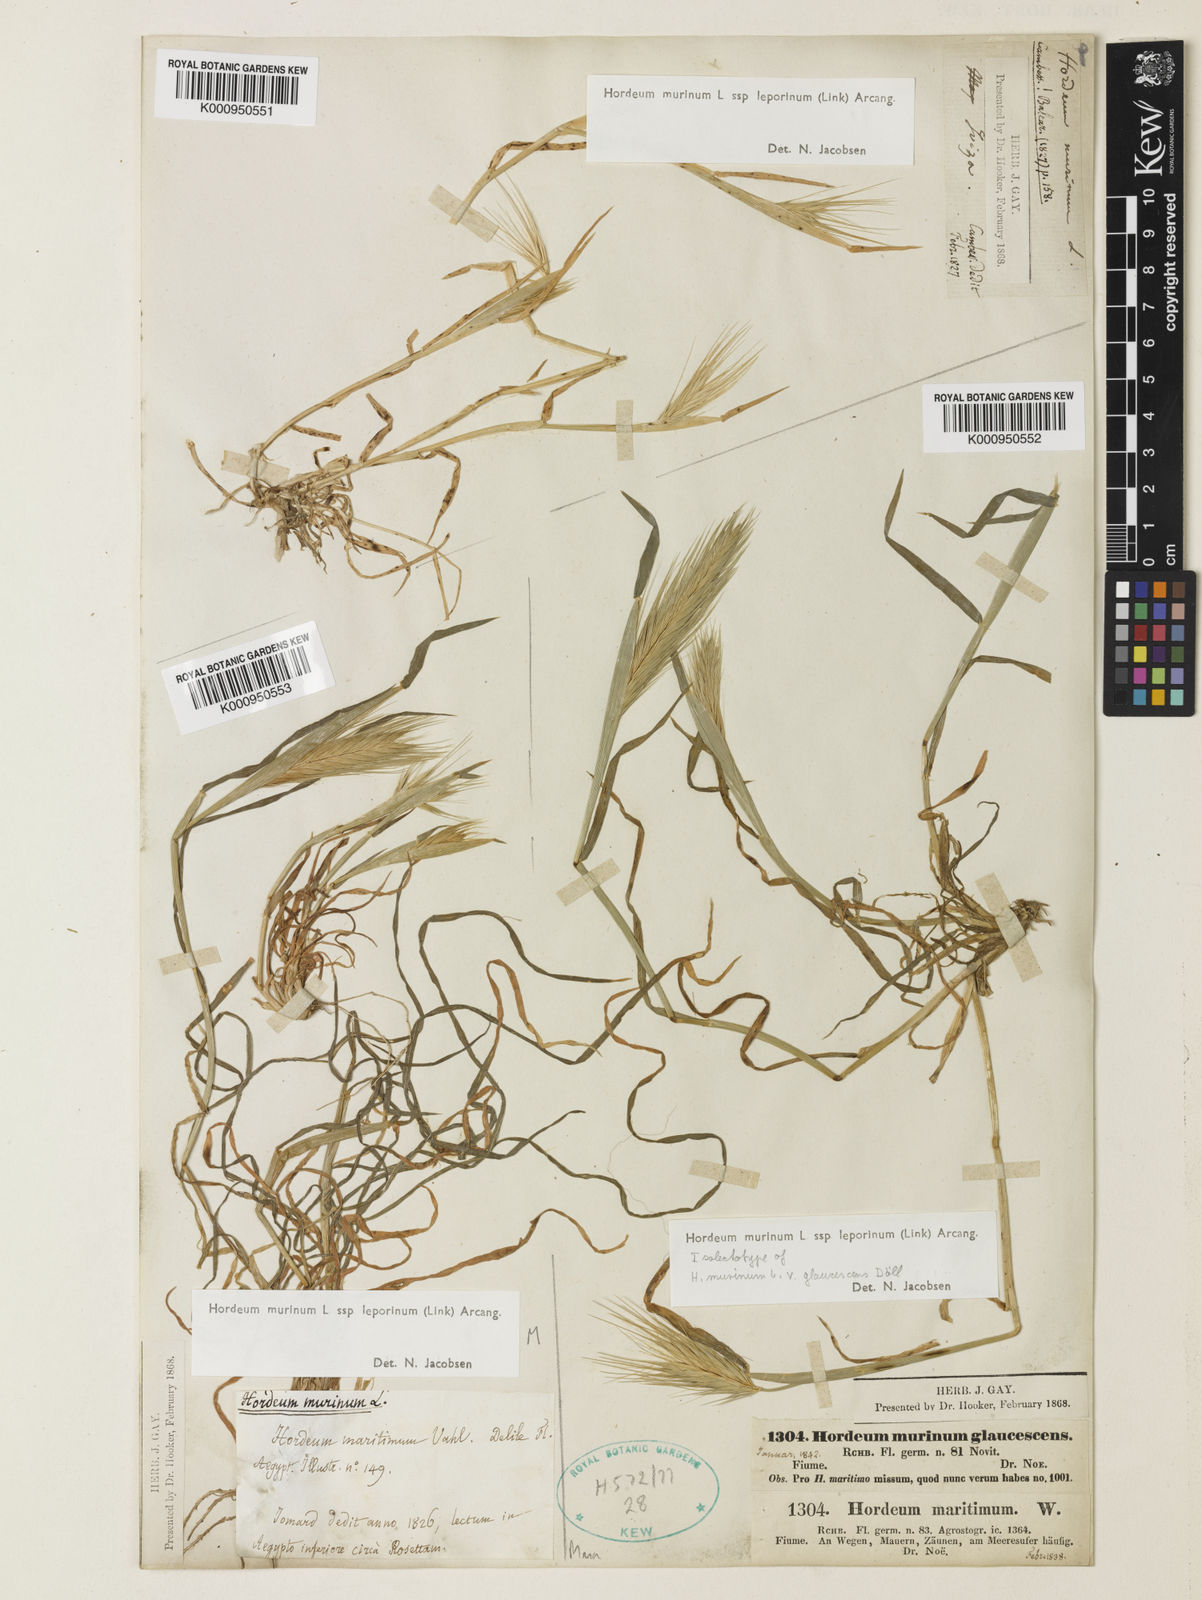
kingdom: Plantae
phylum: Tracheophyta
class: Liliopsida
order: Poales
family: Poaceae
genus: Hordeum
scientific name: Hordeum murinum
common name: Wall barley
